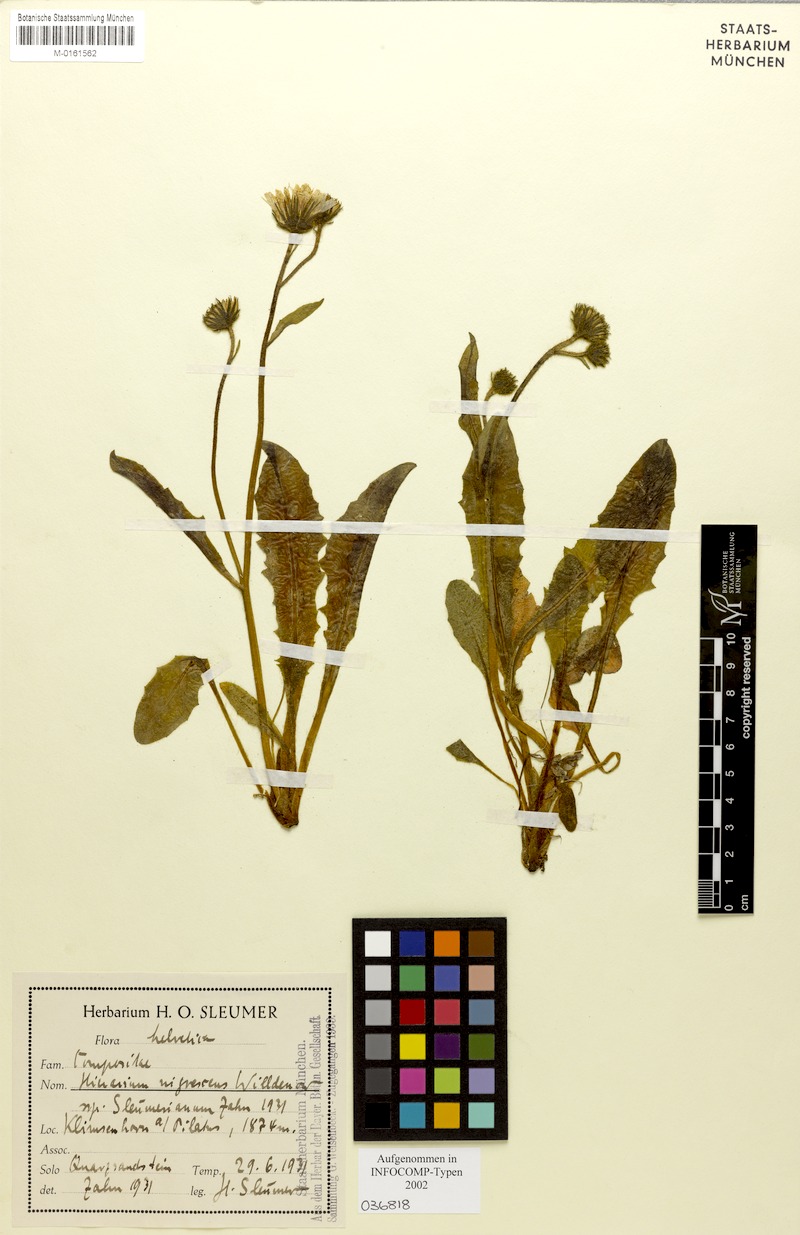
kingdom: Plantae
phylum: Tracheophyta
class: Magnoliopsida
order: Asterales
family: Asteraceae
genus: Hieracium
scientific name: Hieracium nigrescens
